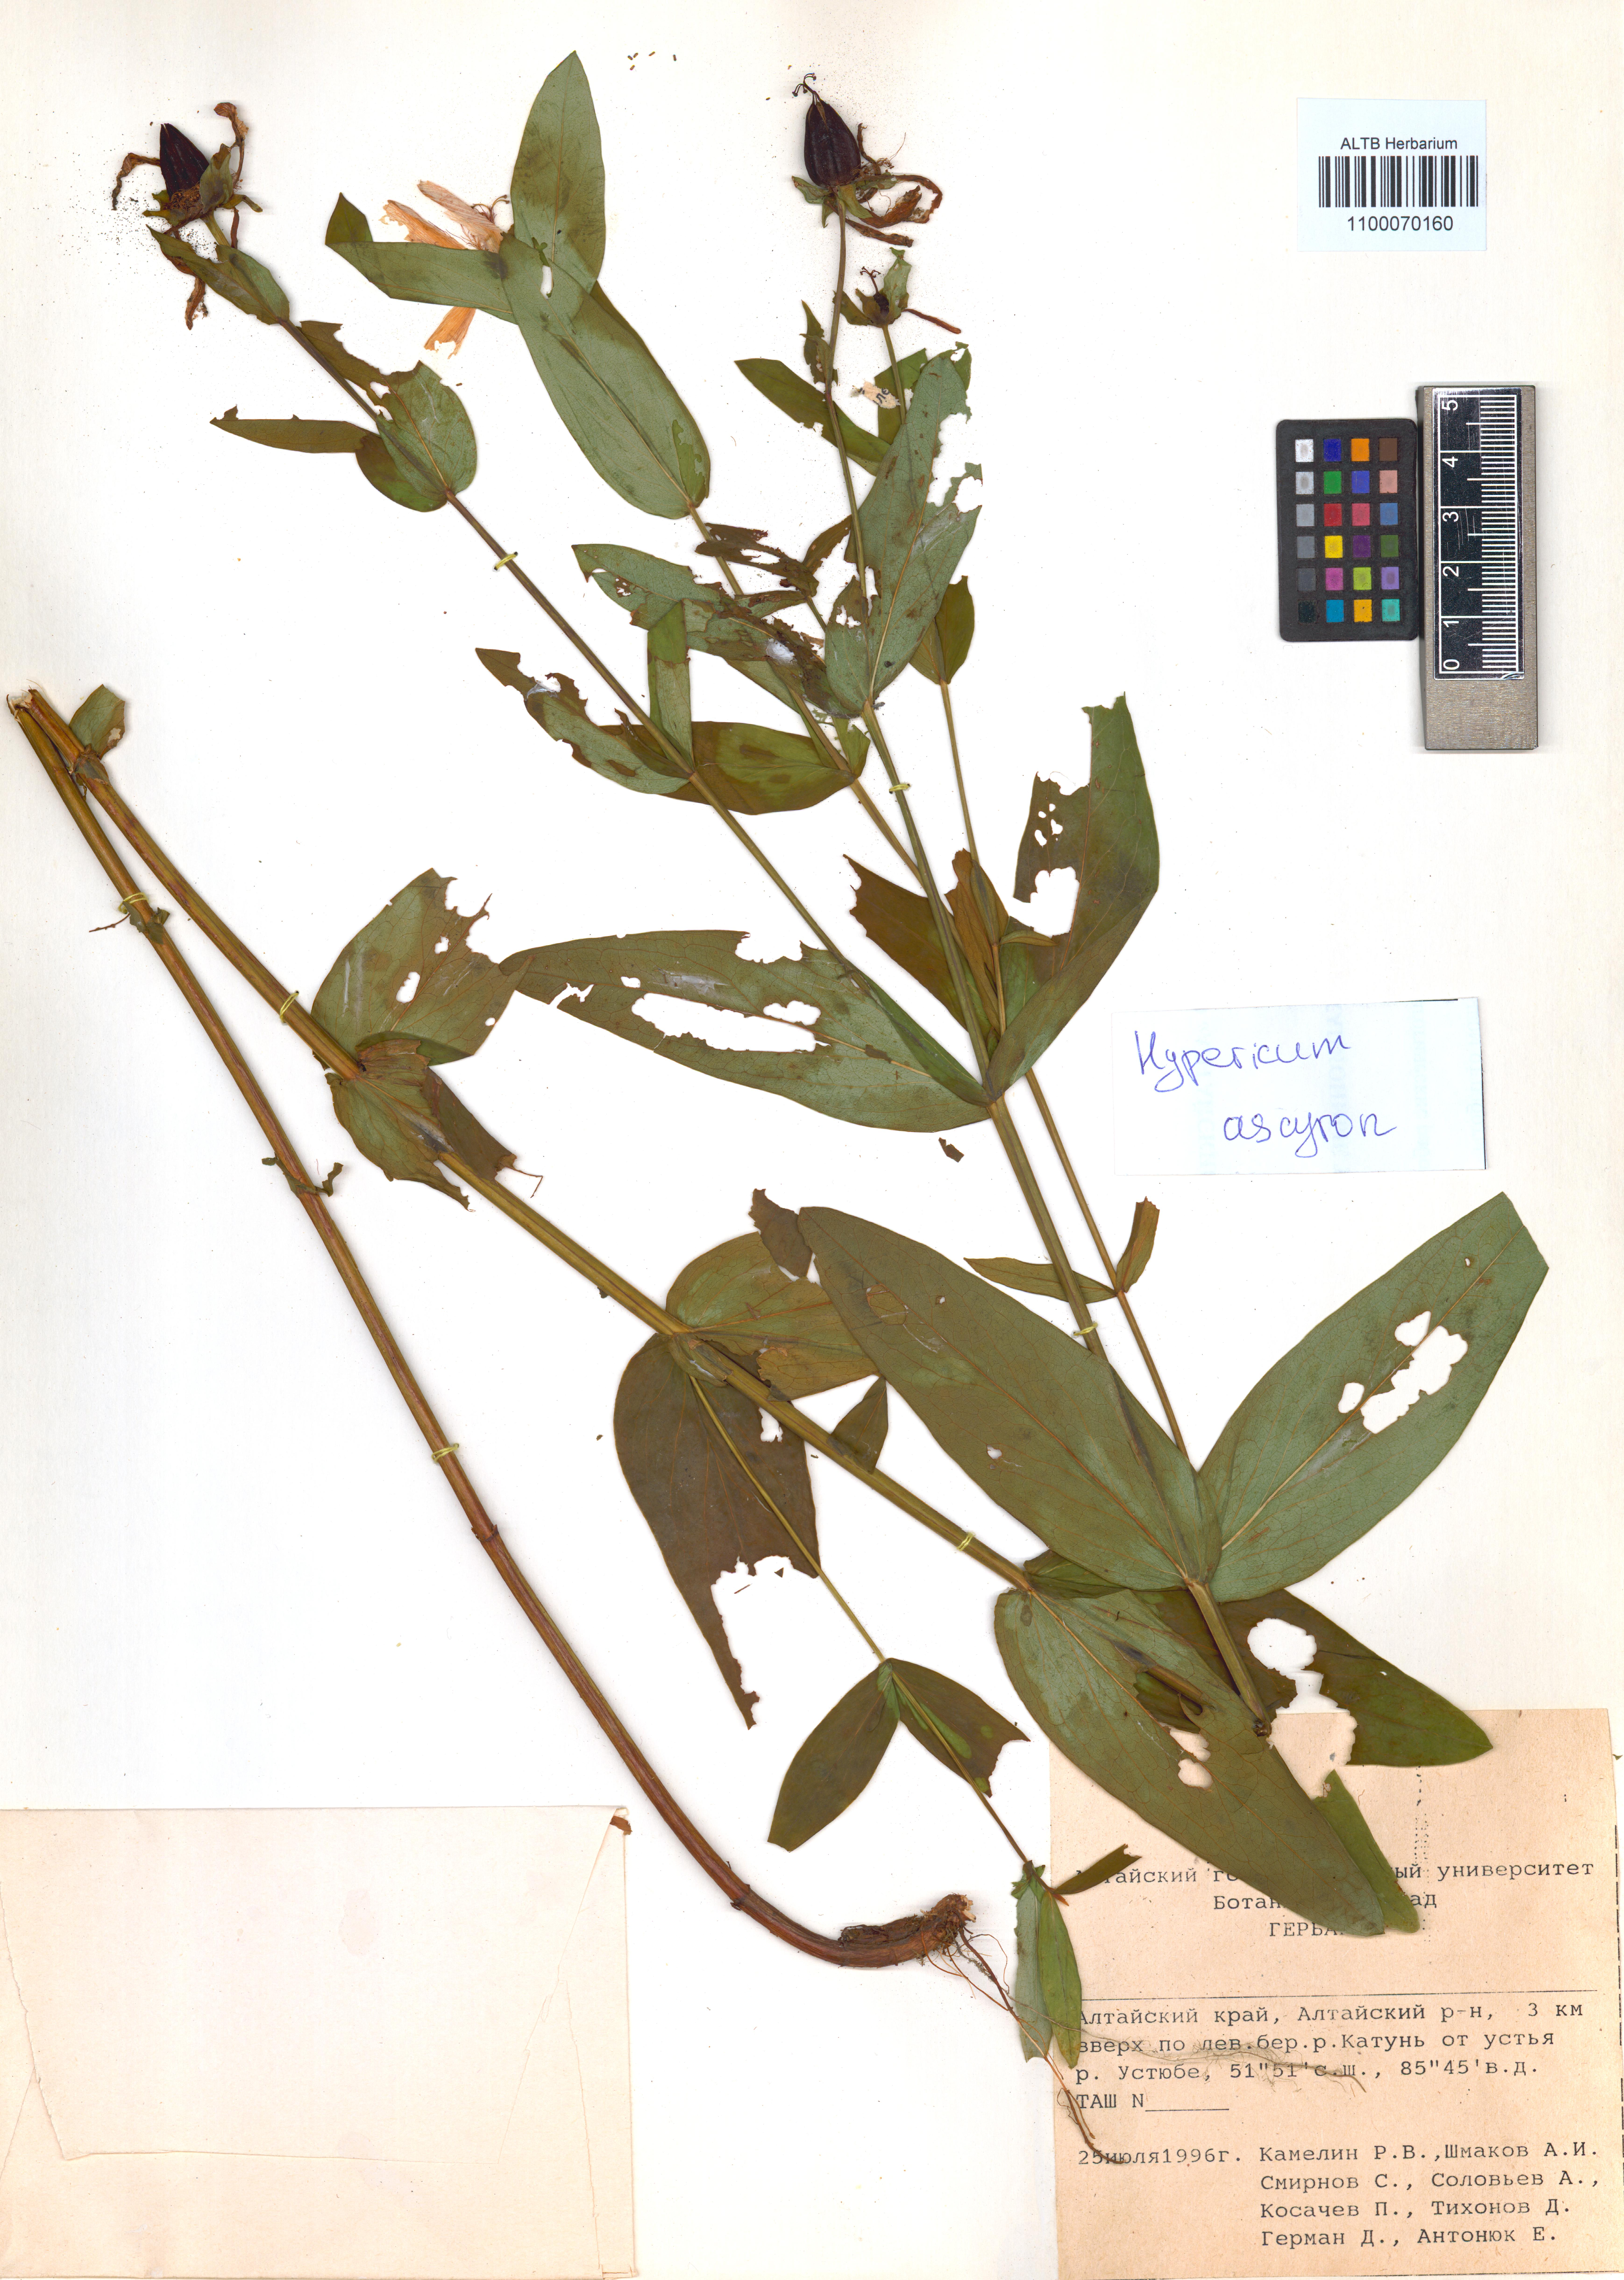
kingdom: Plantae
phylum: Tracheophyta
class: Magnoliopsida
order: Malpighiales
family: Hypericaceae
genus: Hypericum
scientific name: Hypericum ascyron
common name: Giant st. john's-wort
